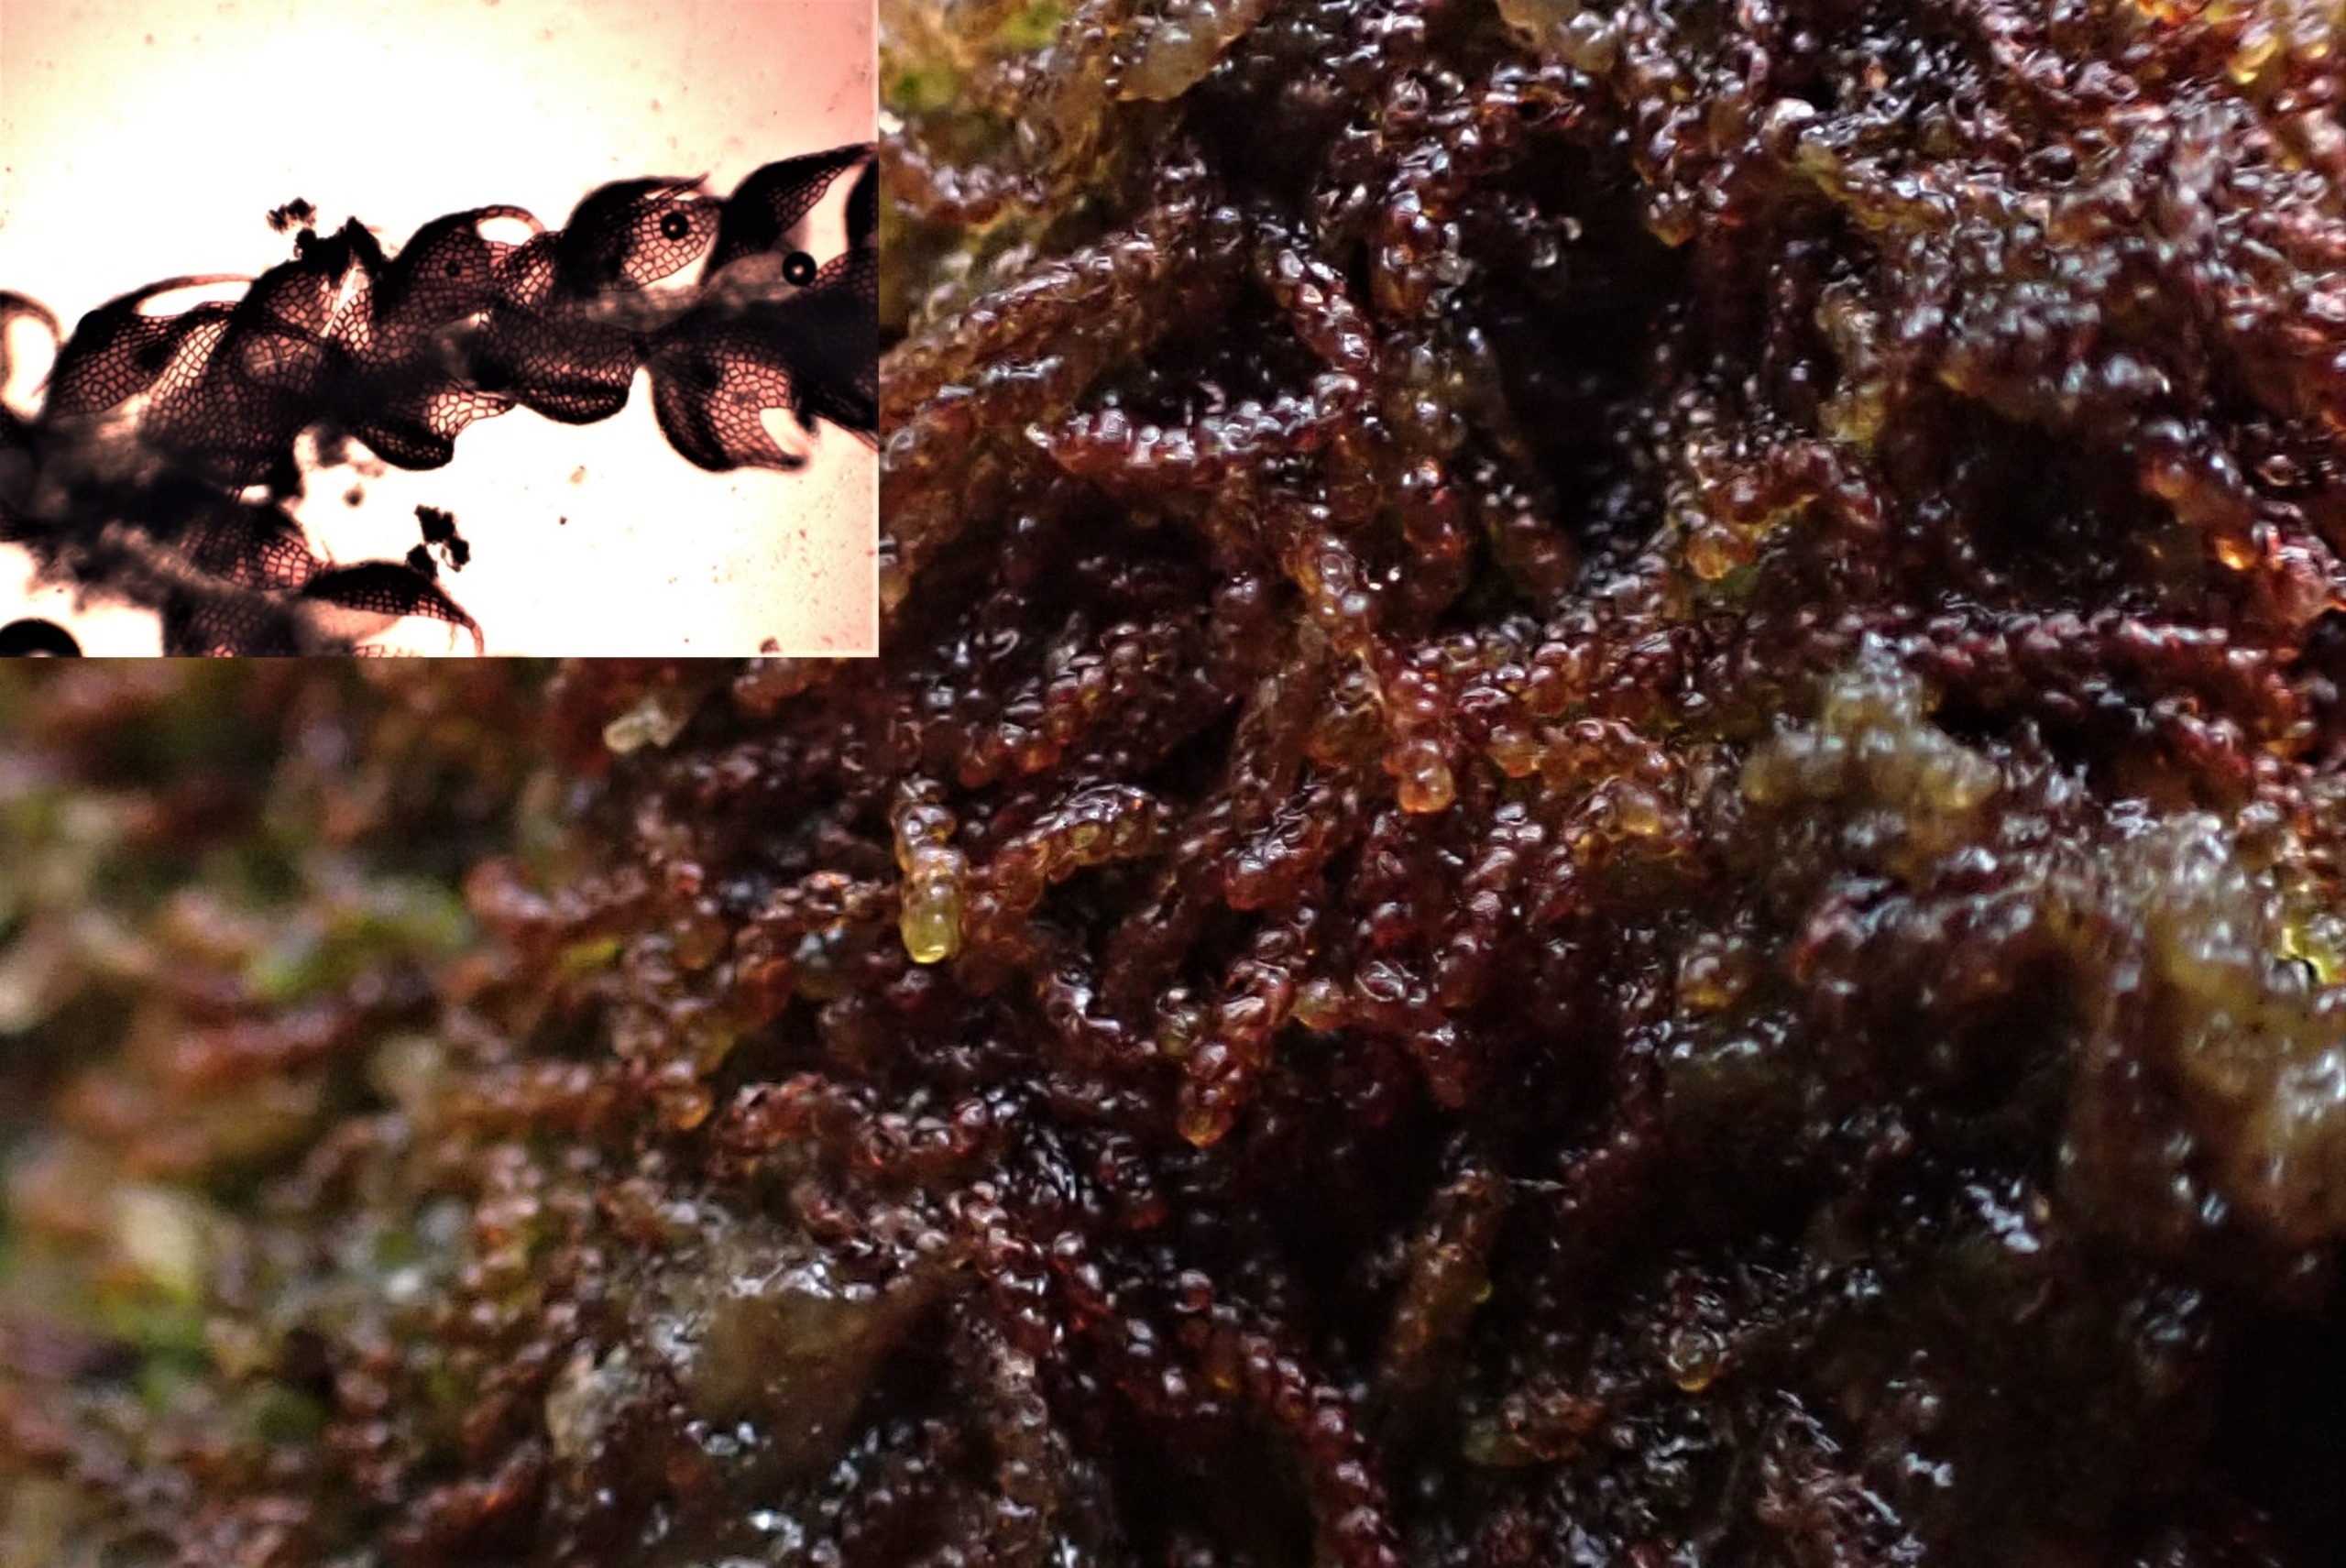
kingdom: Plantae
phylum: Marchantiophyta
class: Jungermanniopsida
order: Jungermanniales
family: Cephaloziaceae
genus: Nowellia
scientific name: Nowellia curvifolia
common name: Krumbladet stødmos
